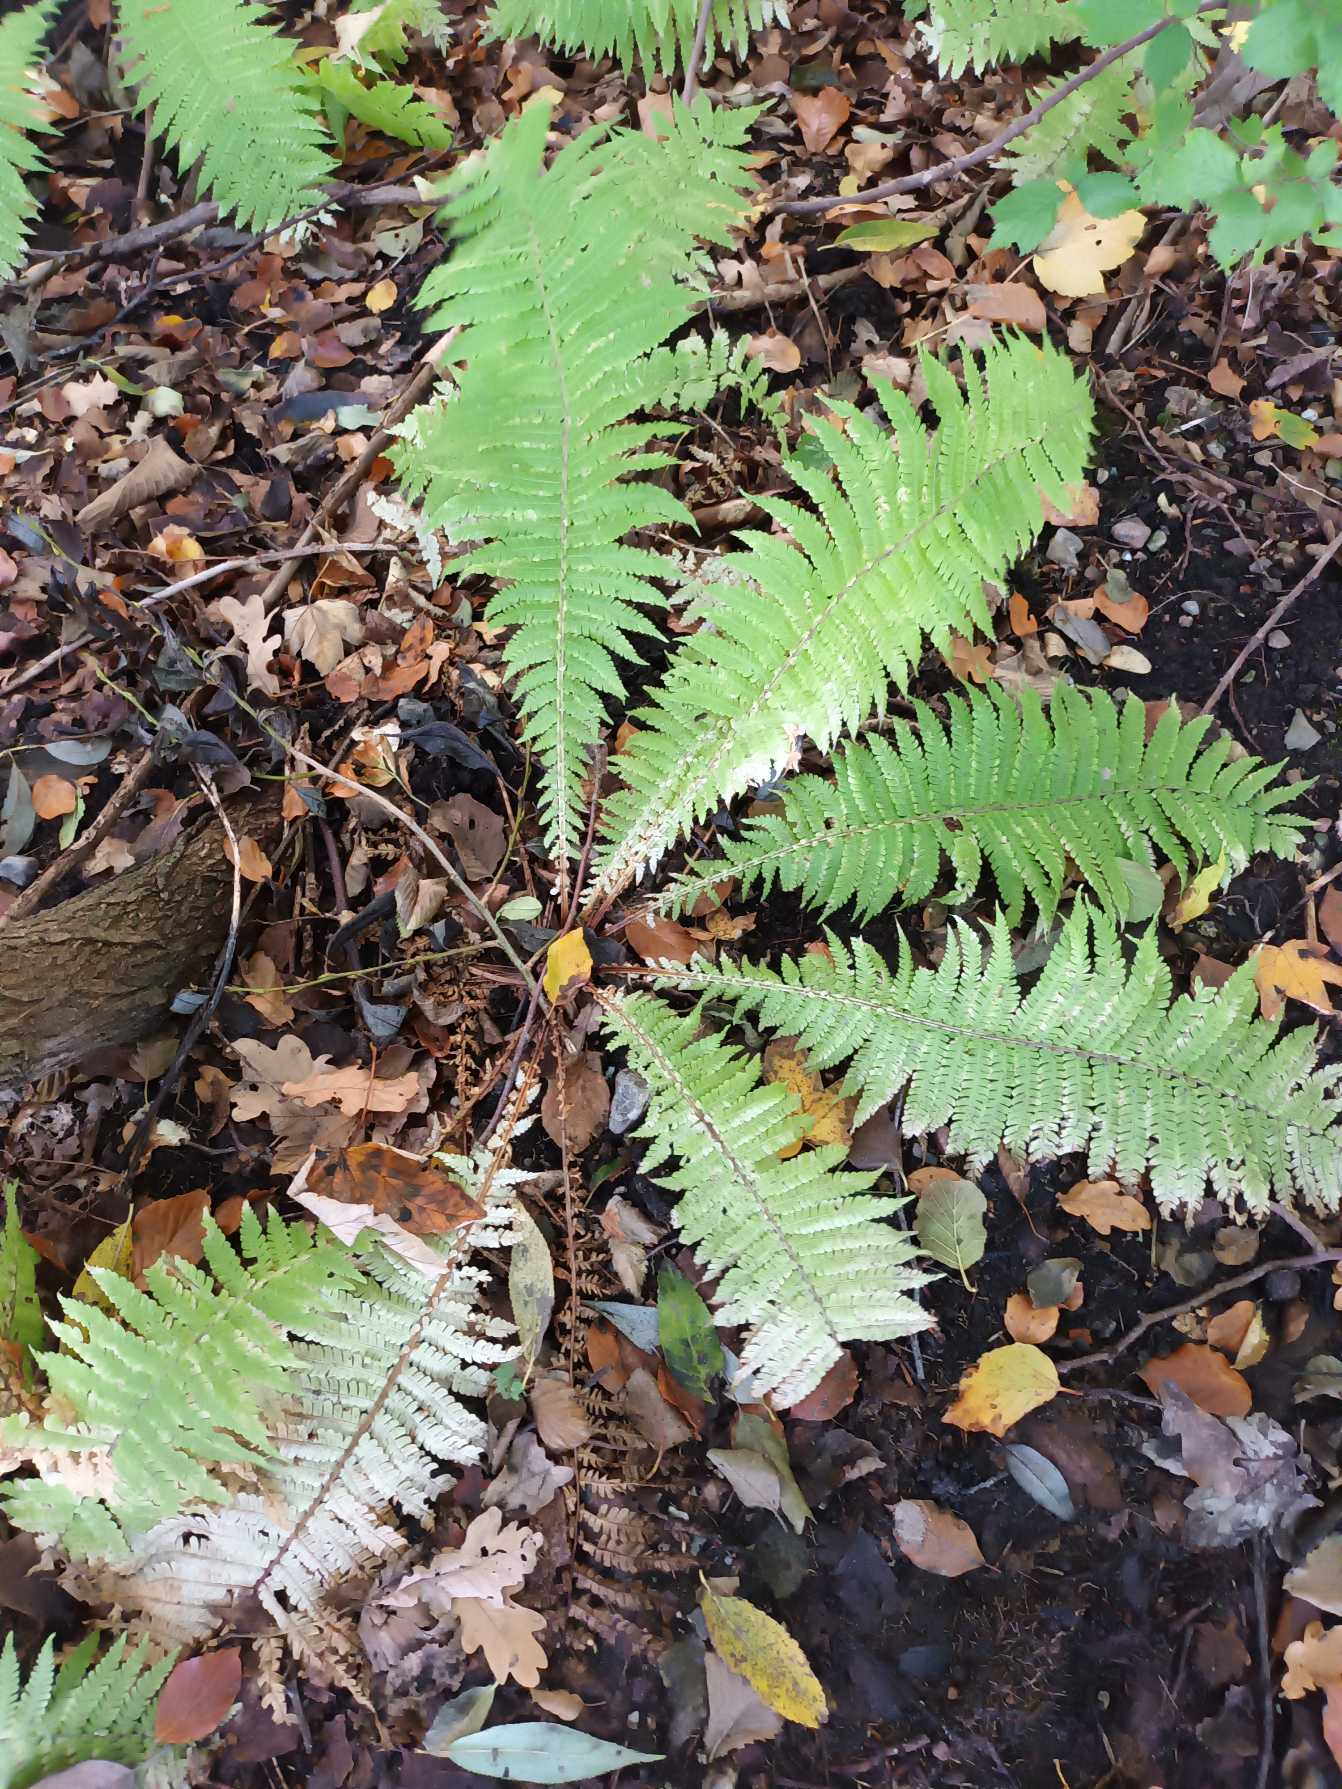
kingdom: Plantae
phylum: Tracheophyta
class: Polypodiopsida
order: Polypodiales
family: Onocleaceae
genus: Matteuccia
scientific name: Matteuccia struthiopteris
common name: Strudsvinge
